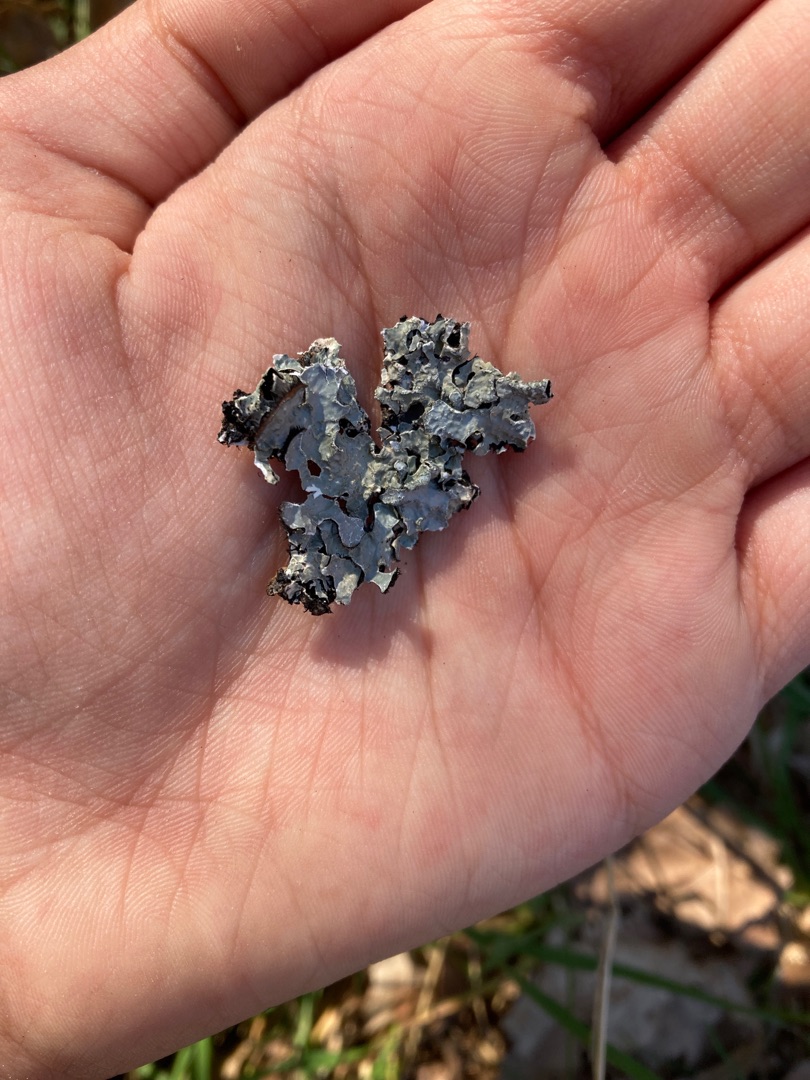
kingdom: Fungi
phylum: Ascomycota
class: Lecanoromycetes
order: Lecanorales
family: Parmeliaceae
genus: Parmelia
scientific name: Parmelia sulcata
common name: Rynket skållav
